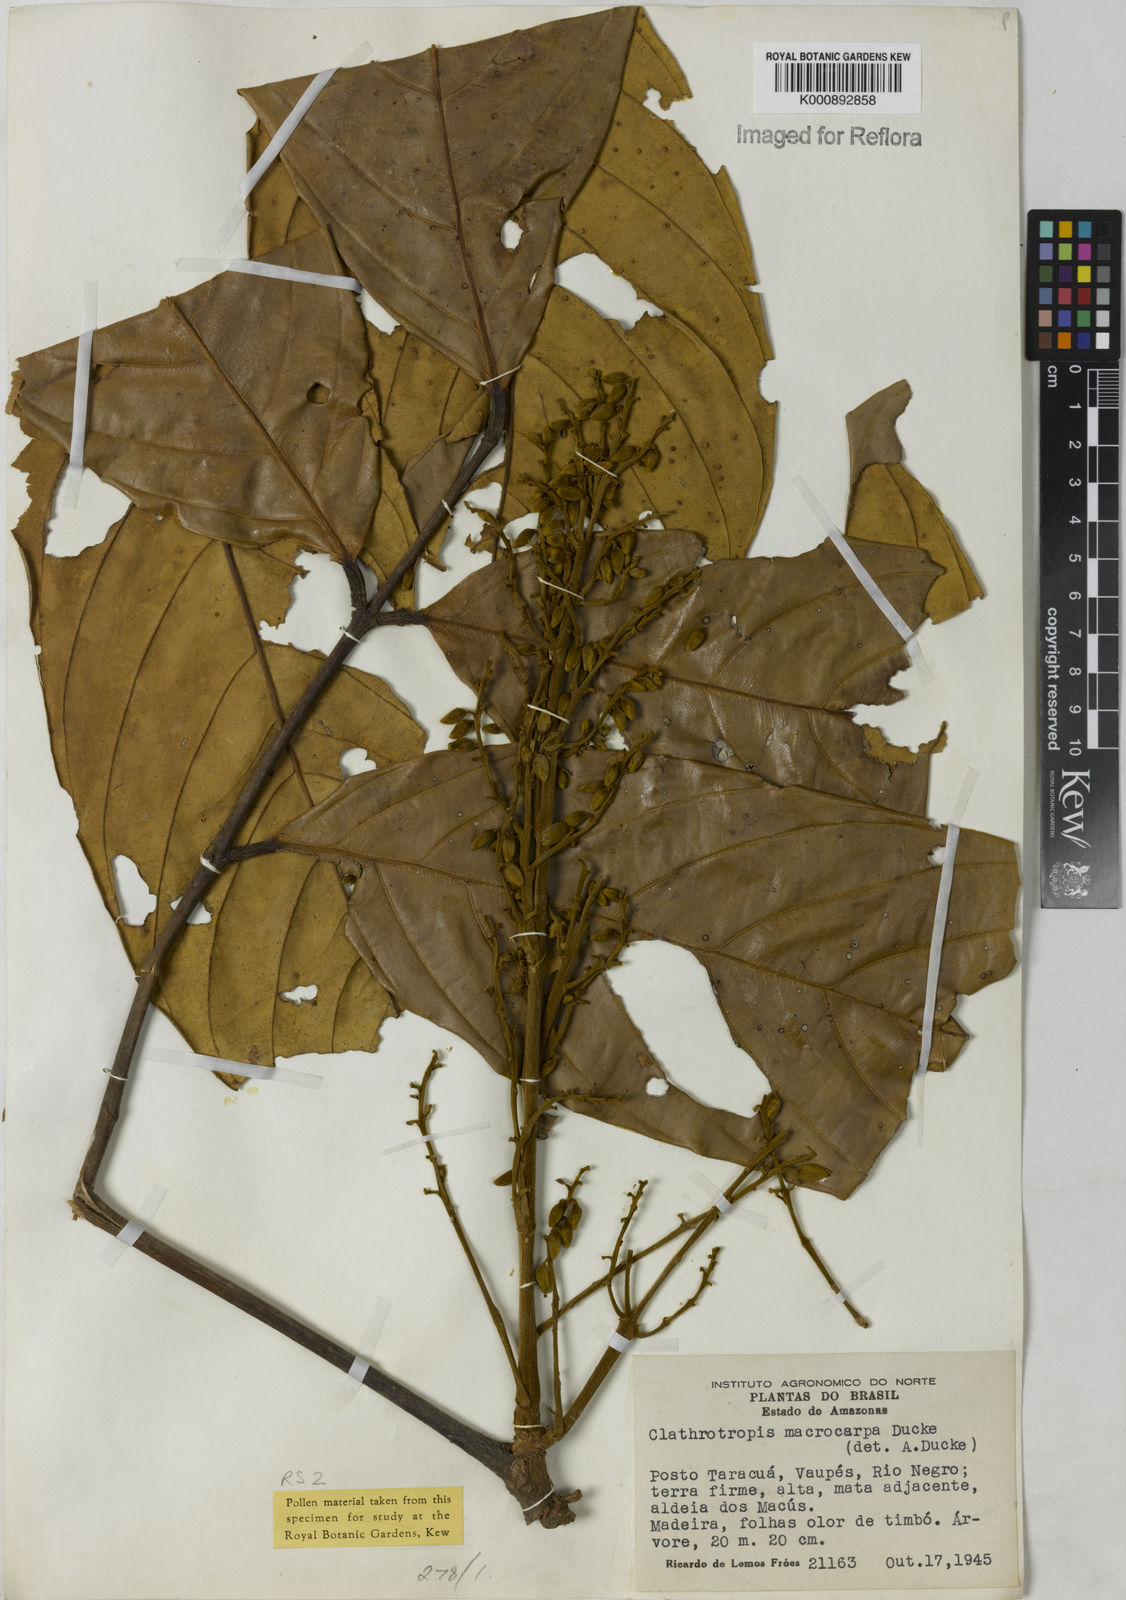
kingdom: Plantae
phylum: Tracheophyta
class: Magnoliopsida
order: Fabales
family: Fabaceae
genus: Clathrotropis
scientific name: Clathrotropis macrocarpa
